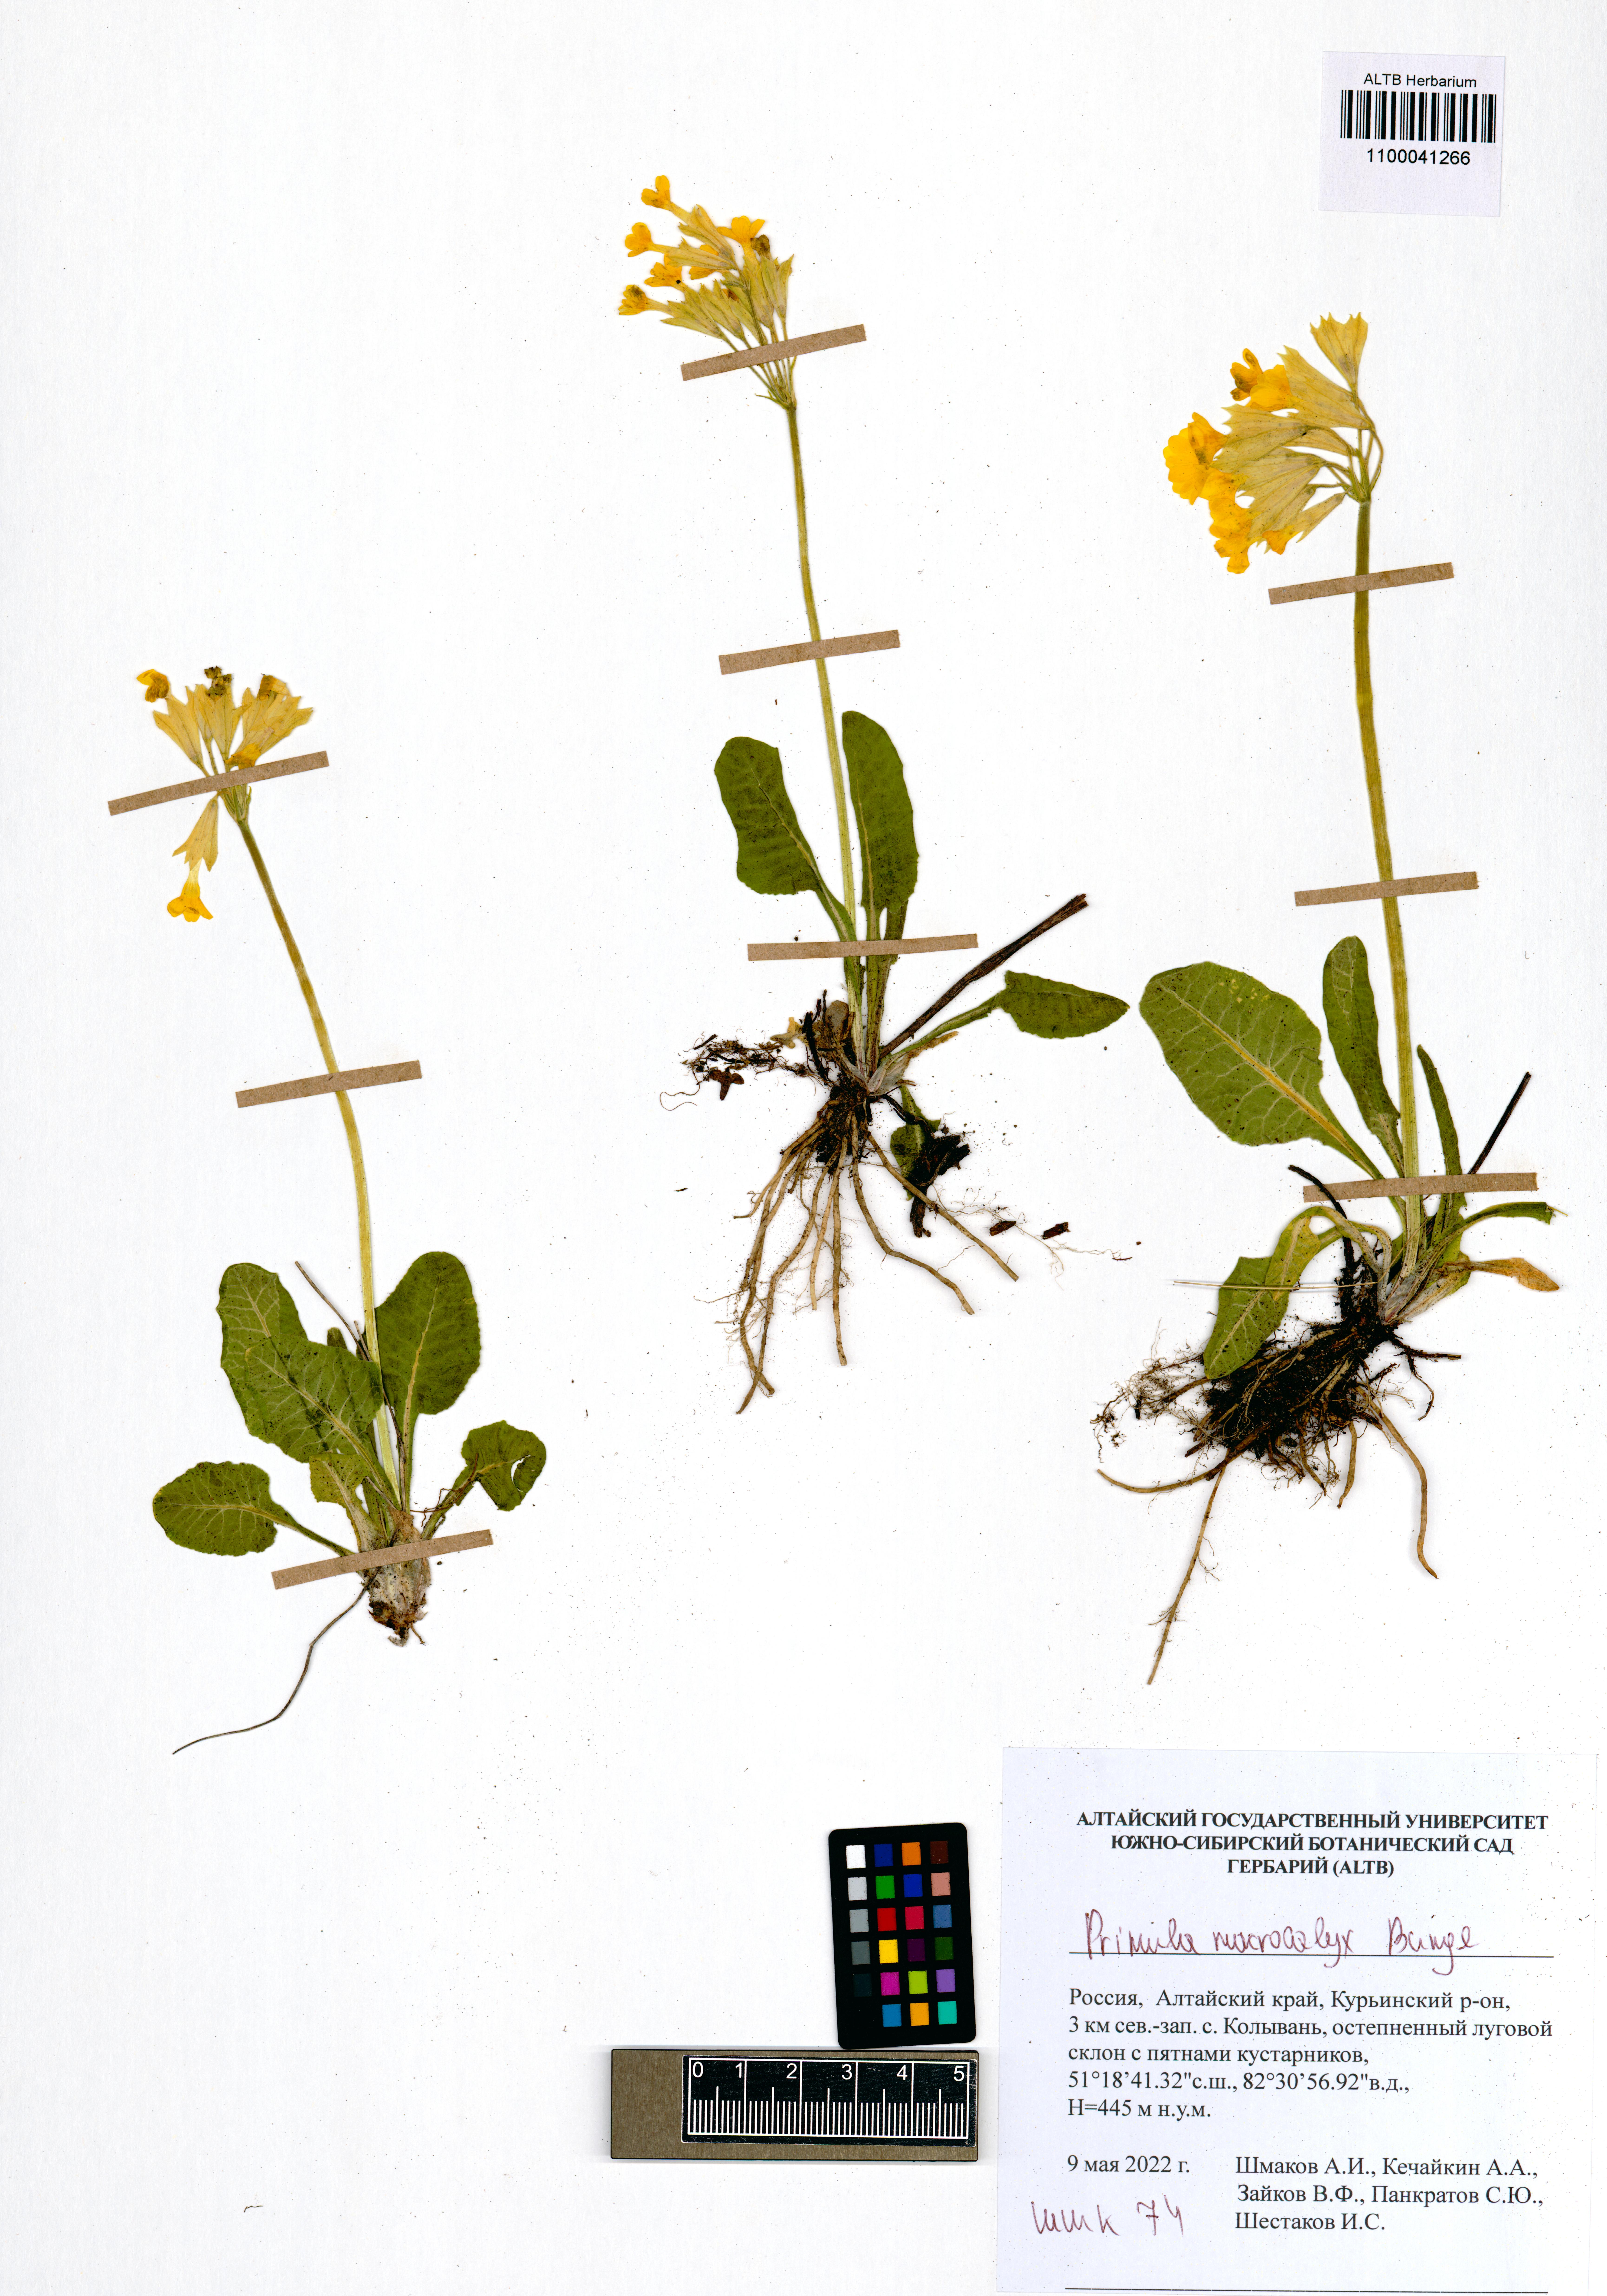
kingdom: Plantae
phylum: Tracheophyta
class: Magnoliopsida
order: Ericales
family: Primulaceae
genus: Primula
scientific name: Primula veris
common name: Cowslip
